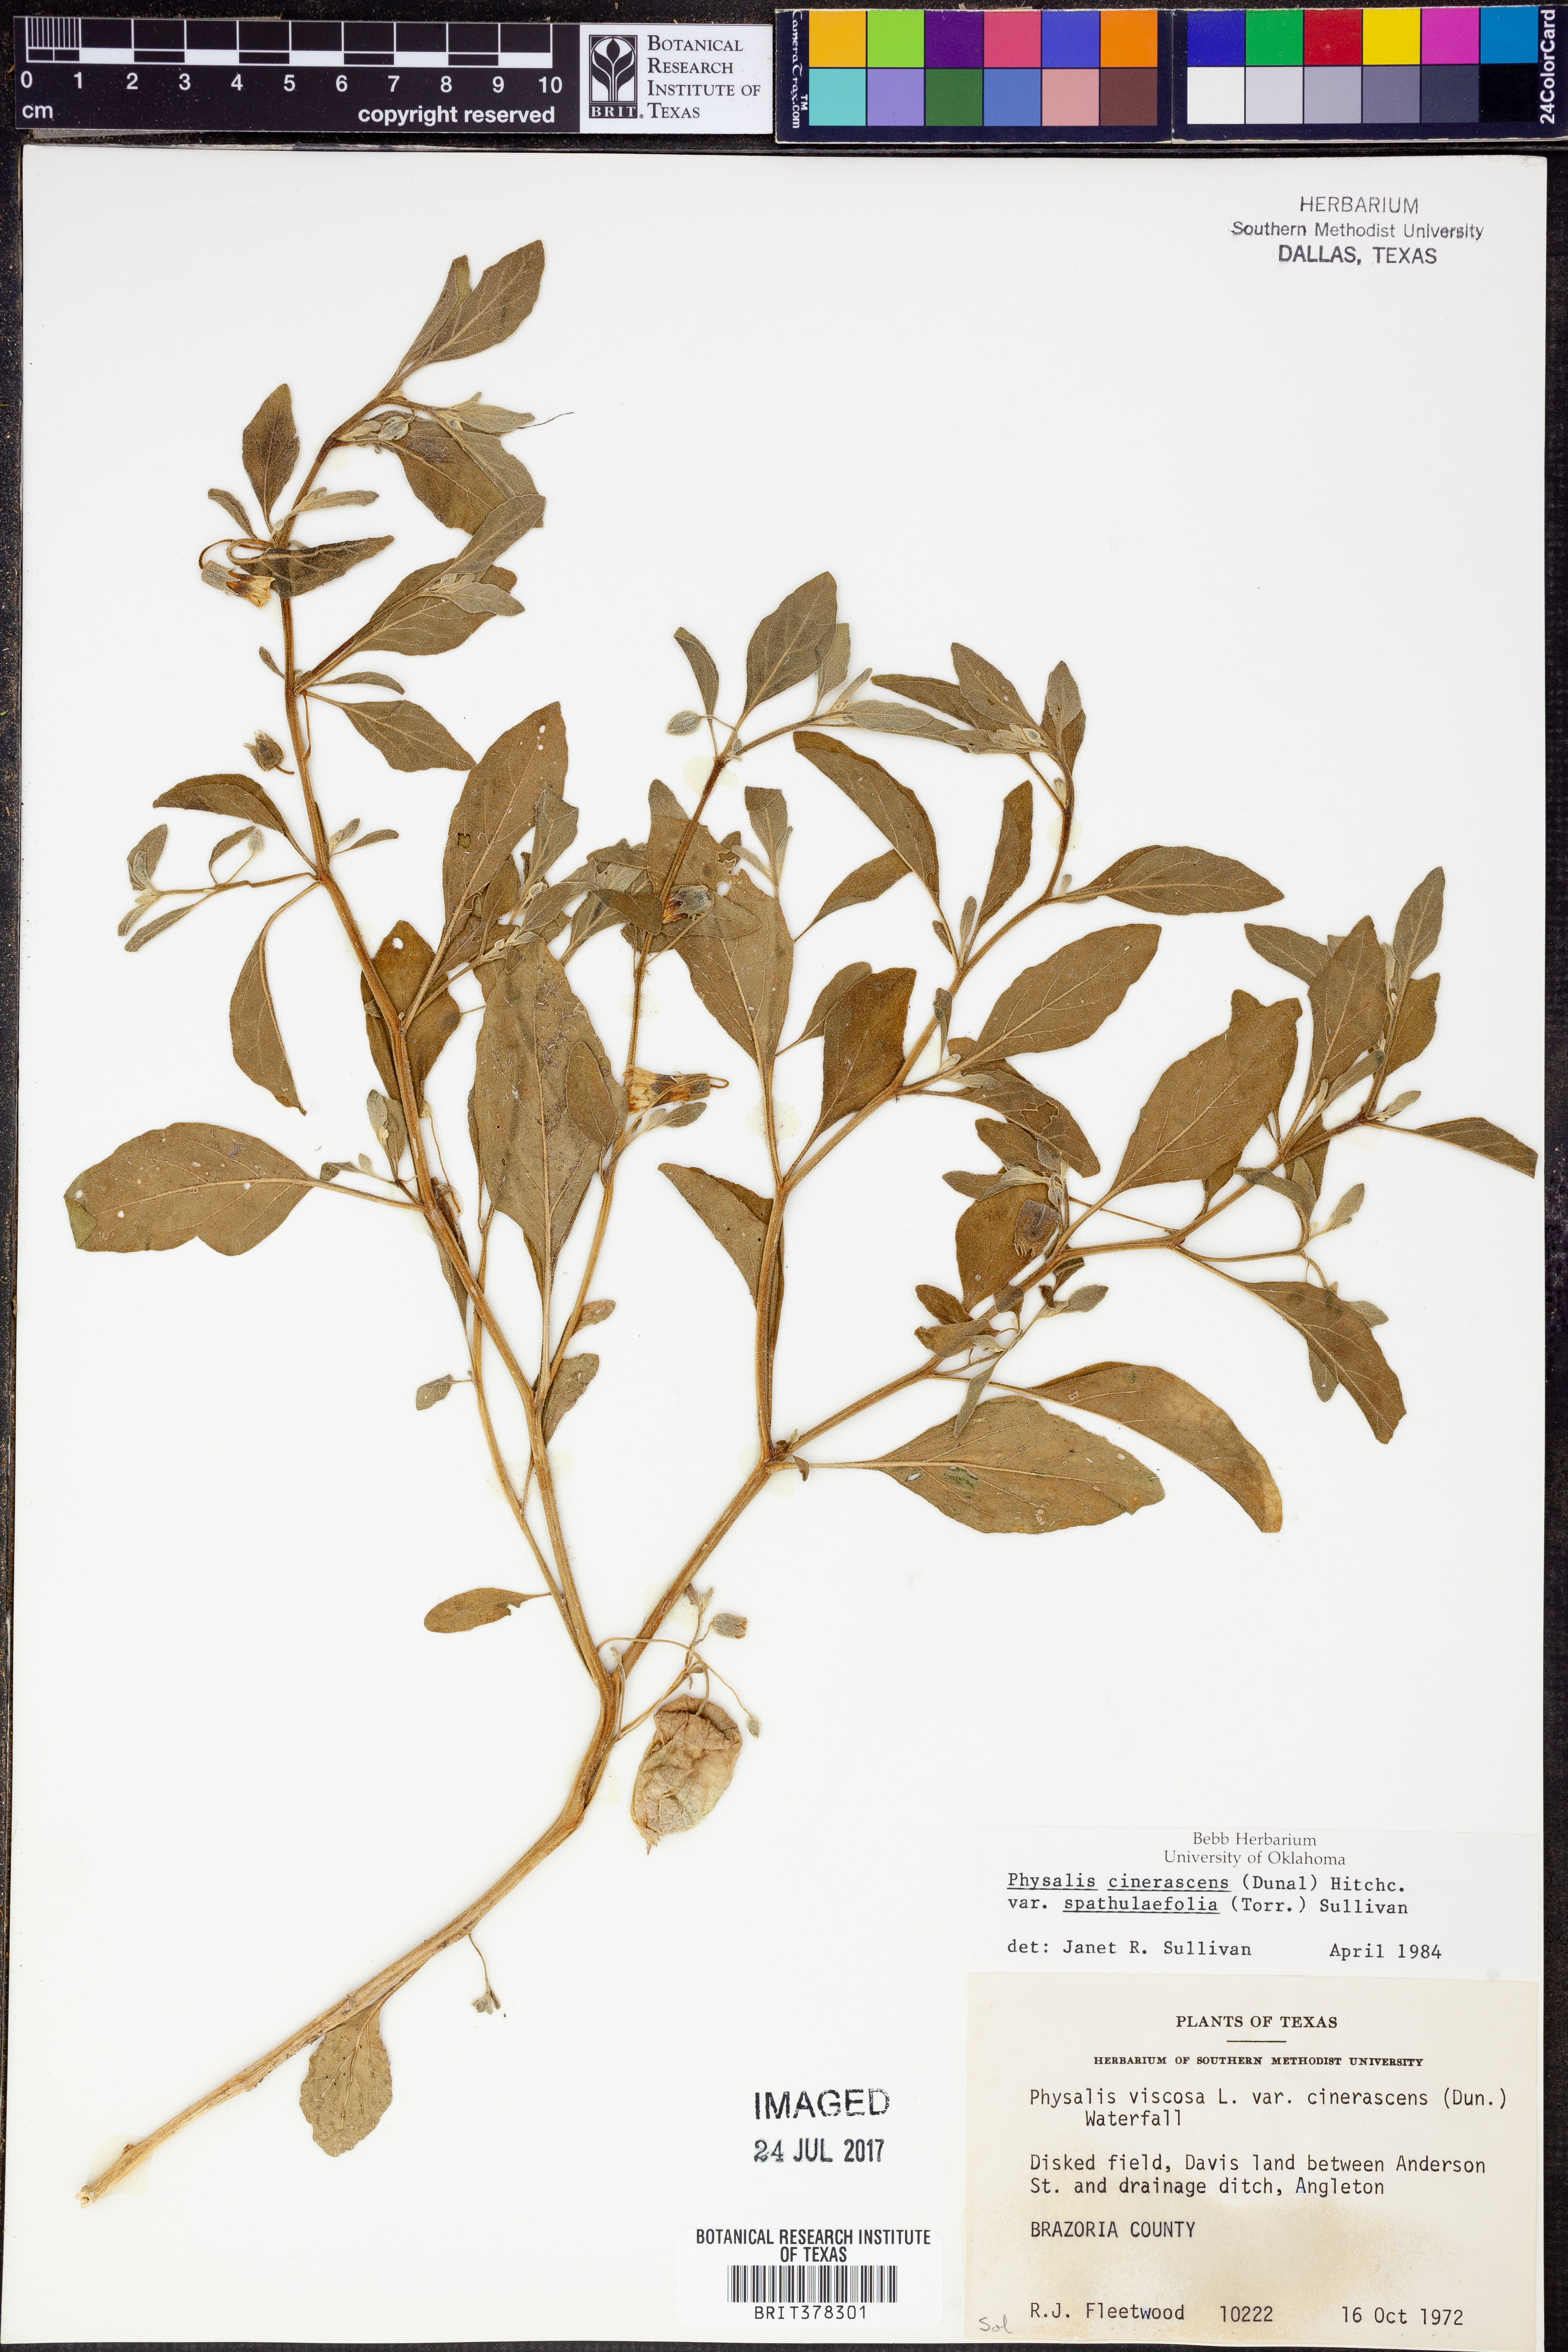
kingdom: Plantae
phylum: Tracheophyta
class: Magnoliopsida
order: Solanales
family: Solanaceae
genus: Physalis
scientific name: Physalis cinerascens
